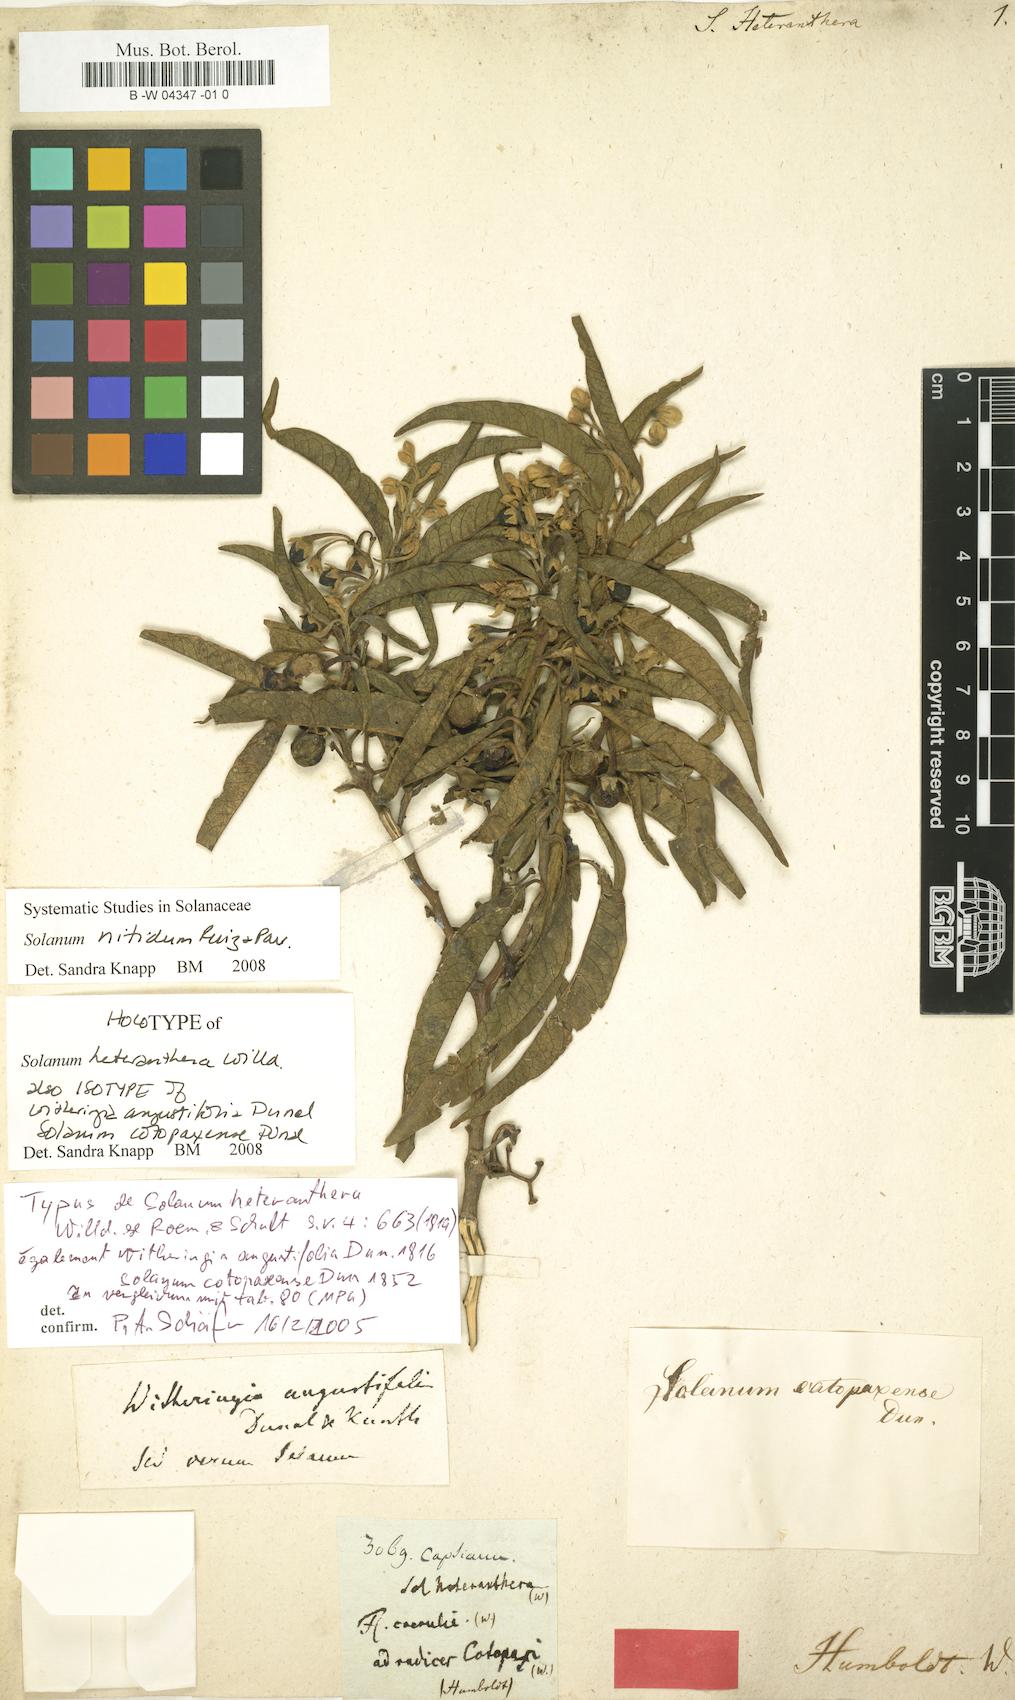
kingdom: Plantae
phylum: Tracheophyta
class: Magnoliopsida
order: Solanales
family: Solanaceae
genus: Solanum
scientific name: Solanum nitidum
